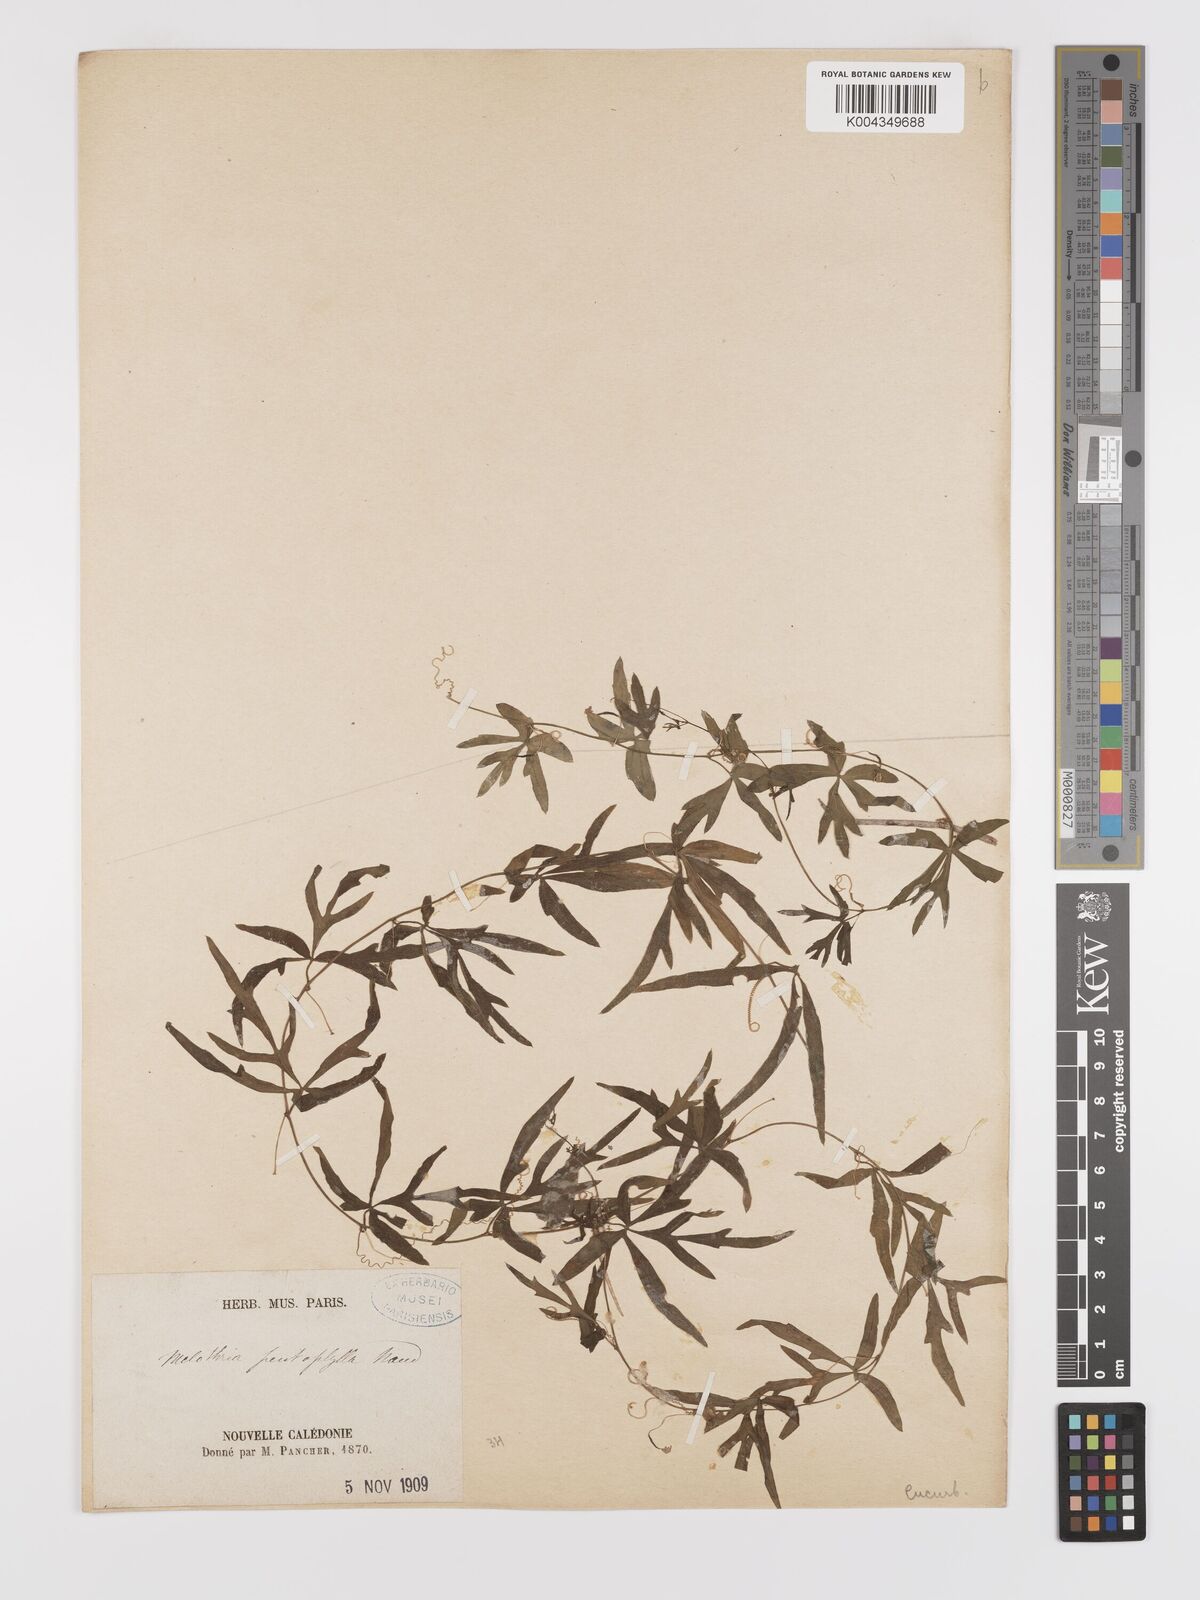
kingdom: Plantae
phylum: Tracheophyta
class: Magnoliopsida
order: Cucurbitales
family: Cucurbitaceae
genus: Zehneria
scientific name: Zehneria mucronata
